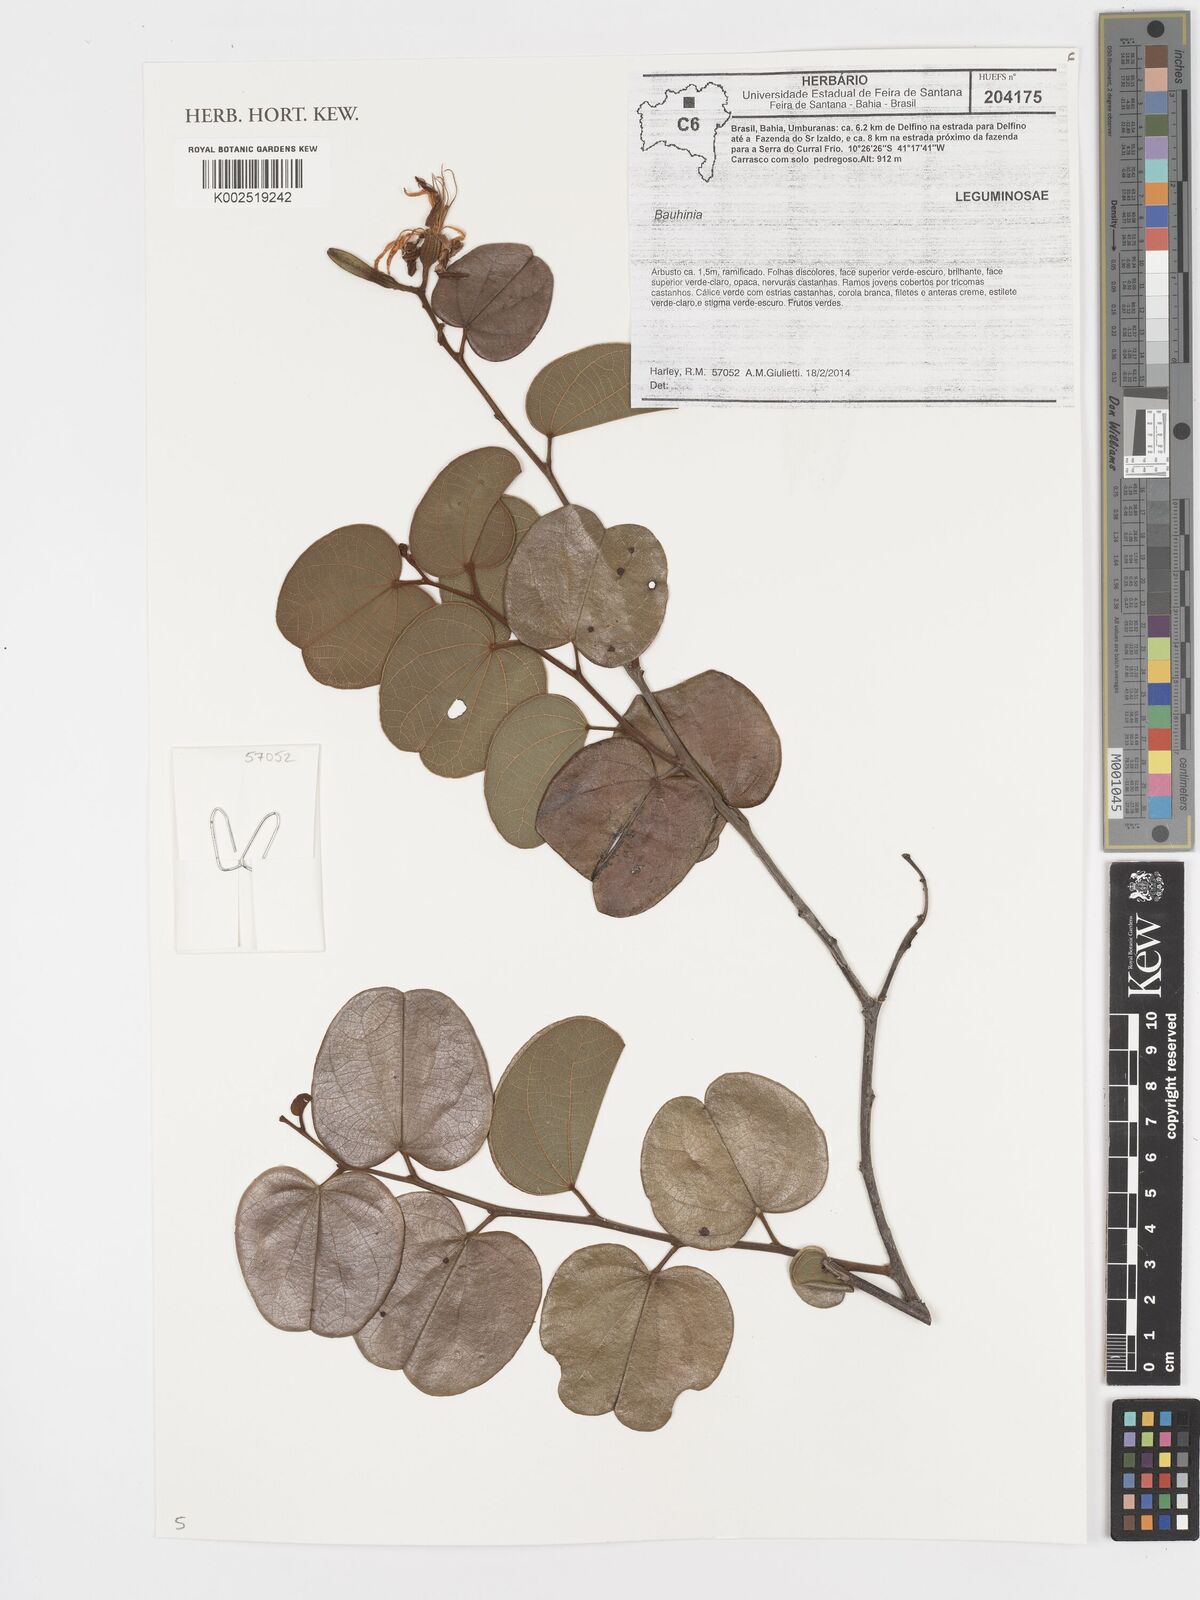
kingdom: Plantae
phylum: Tracheophyta
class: Magnoliopsida
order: Fabales
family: Fabaceae
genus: Bauhinia
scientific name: Bauhinia
